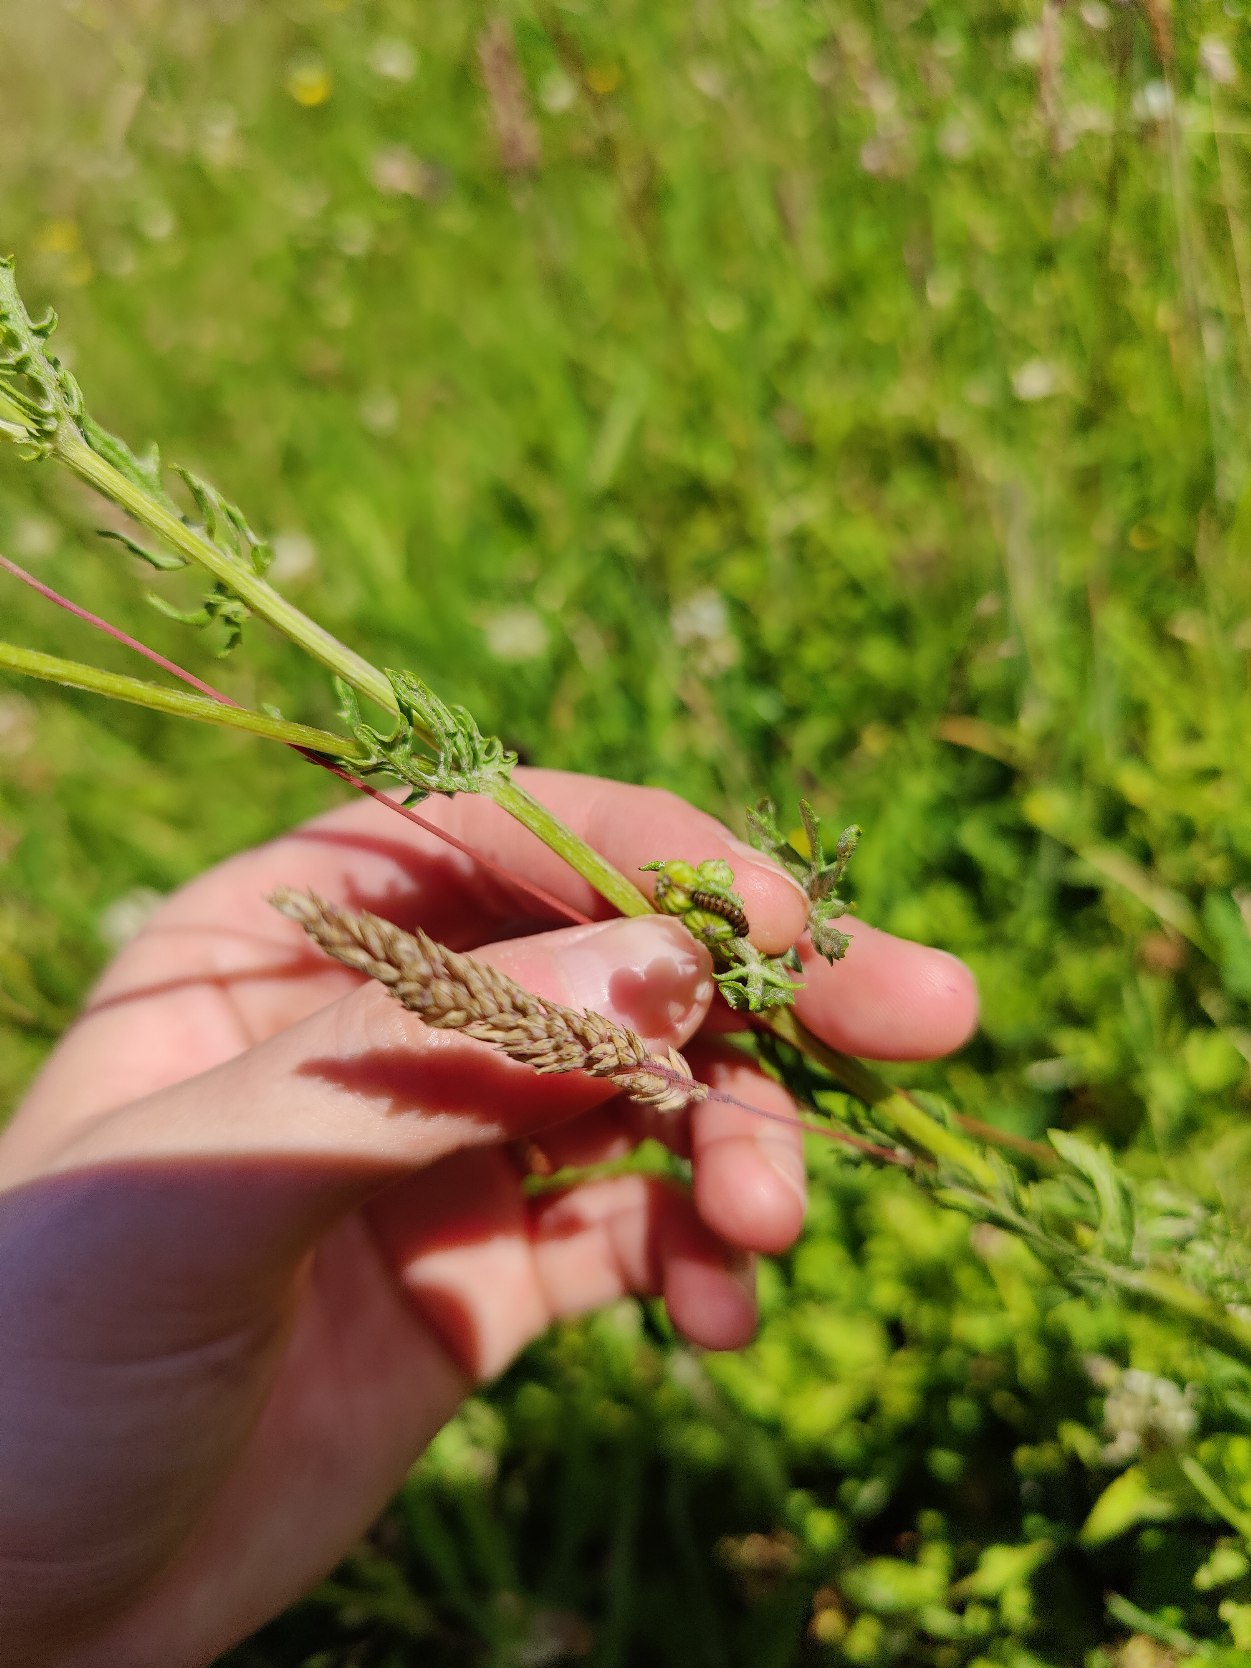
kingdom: Animalia
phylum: Arthropoda
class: Insecta
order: Lepidoptera
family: Erebidae
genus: Tyria
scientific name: Tyria jacobaeae
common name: Blodplet
